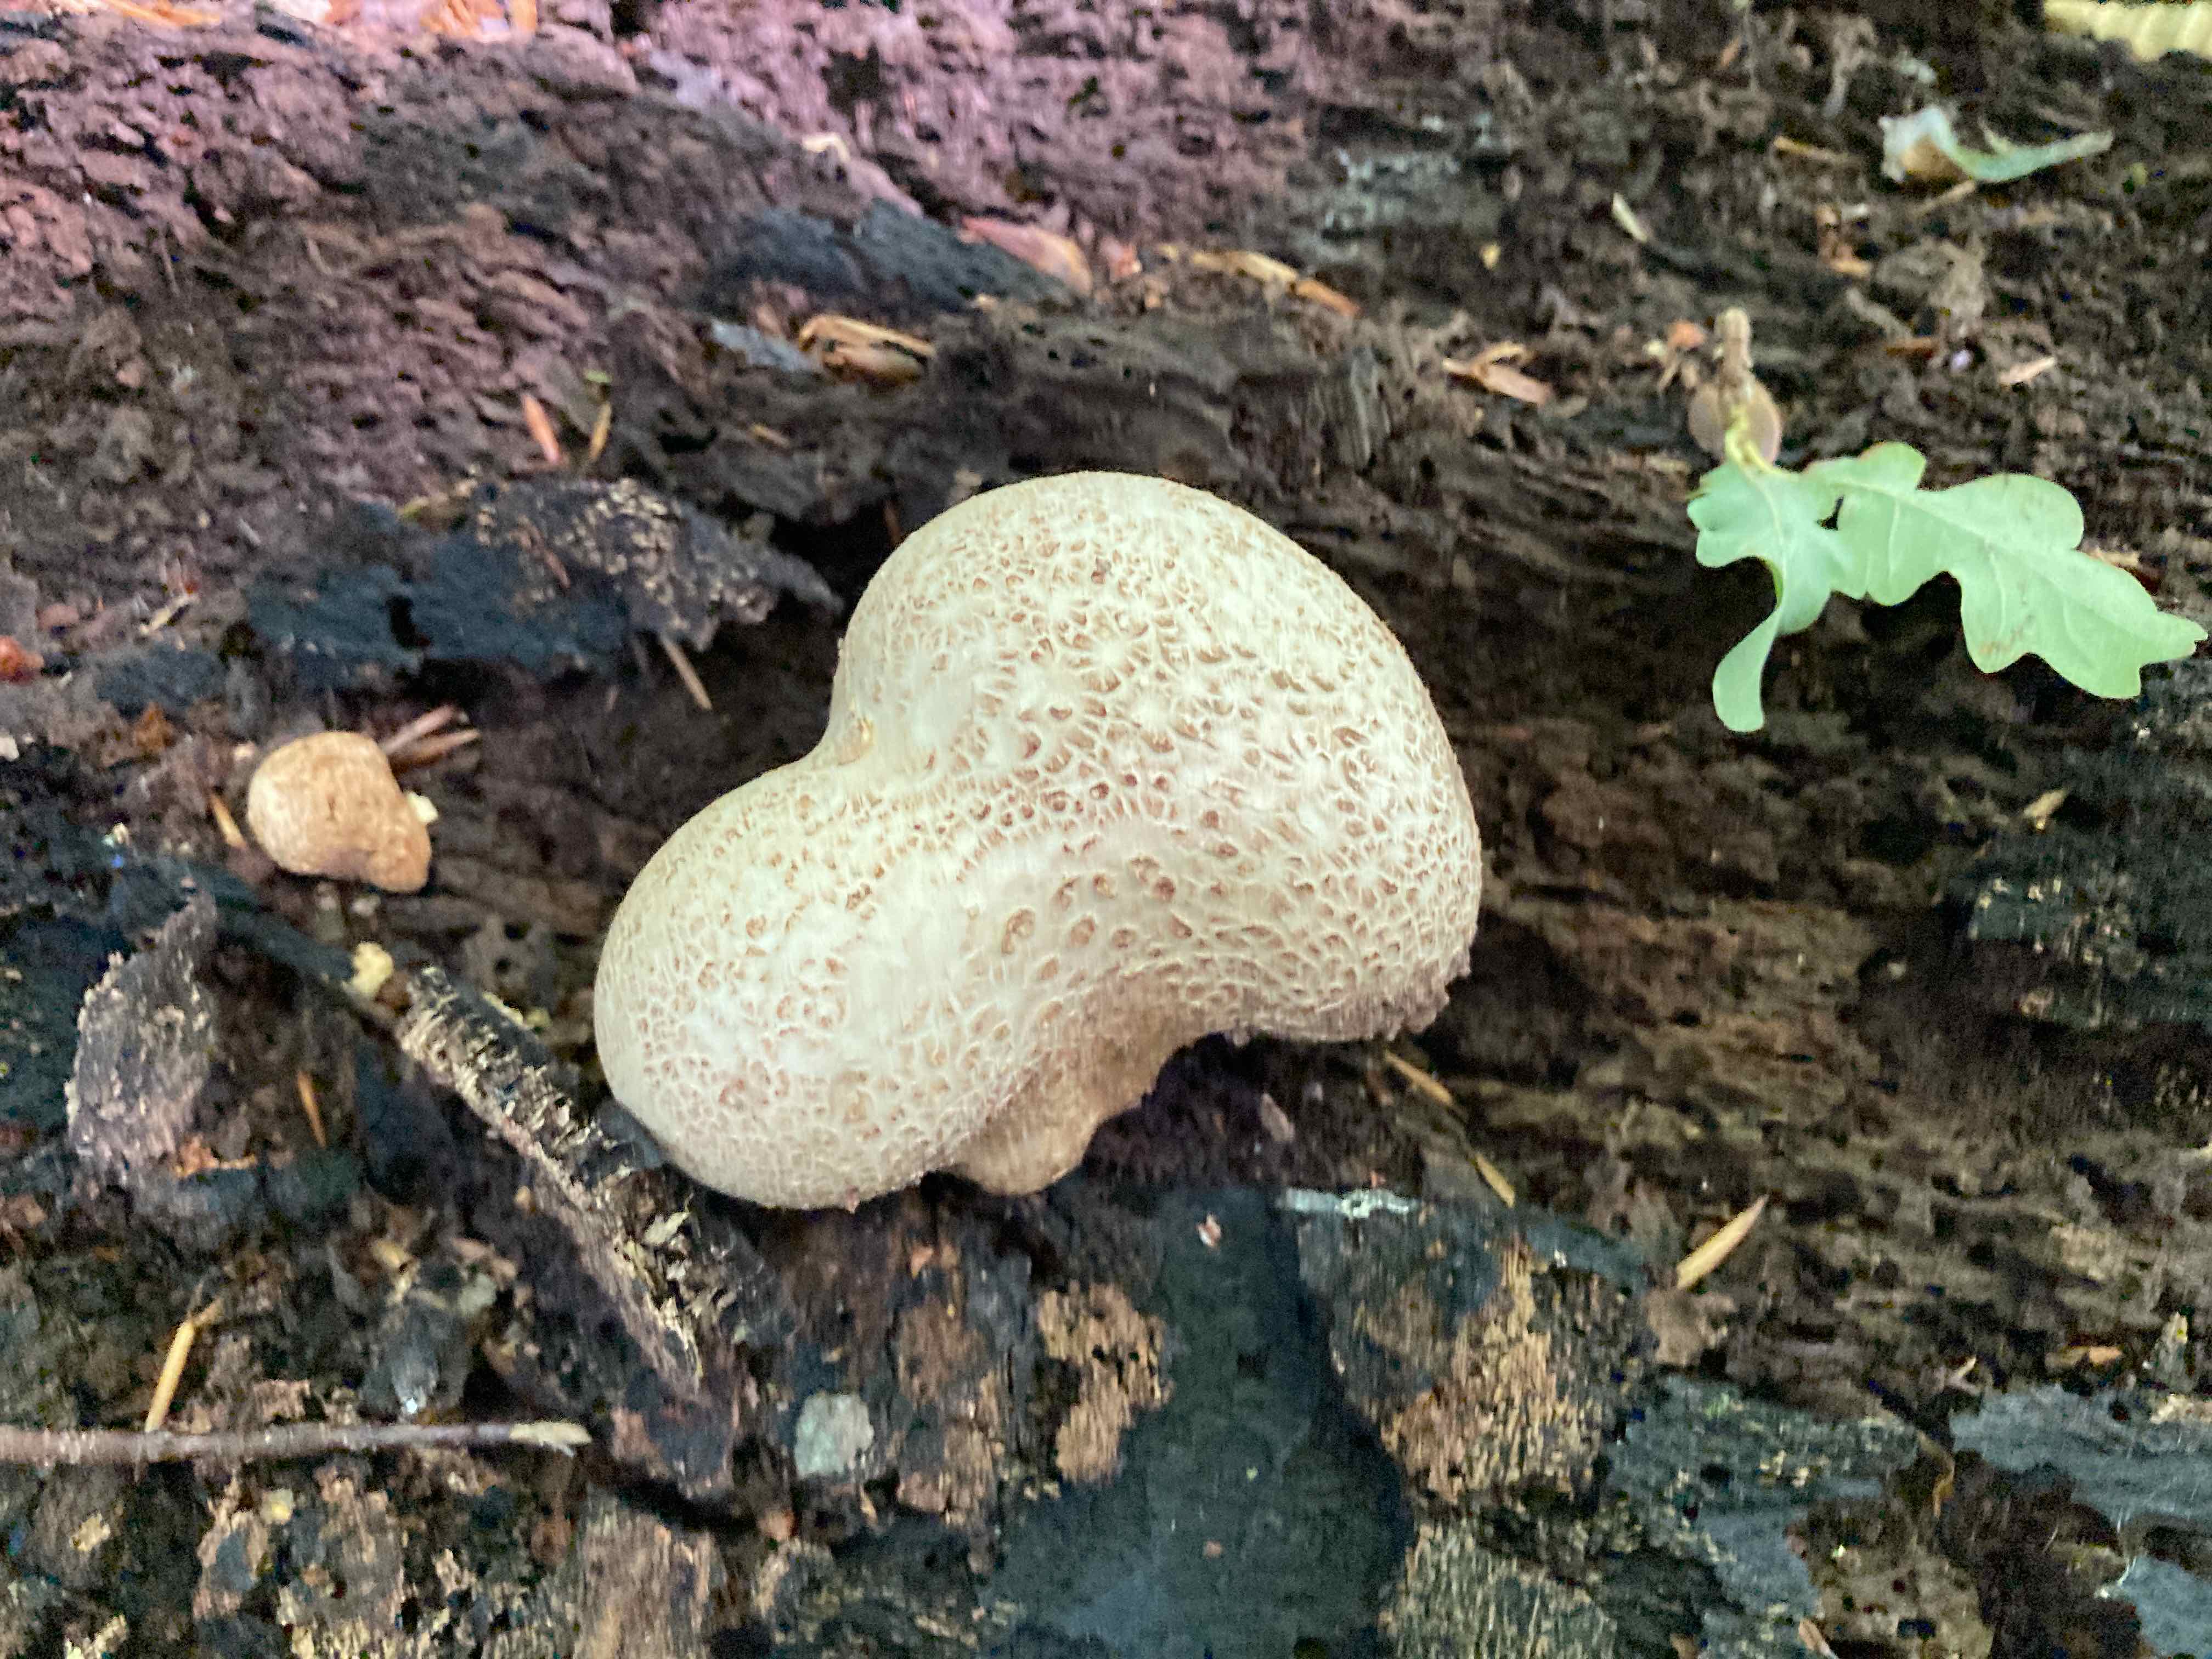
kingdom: Fungi
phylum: Basidiomycota
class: Agaricomycetes
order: Boletales
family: Sclerodermataceae
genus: Scleroderma
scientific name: Scleroderma citrinum
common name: almindelig bruskbold
